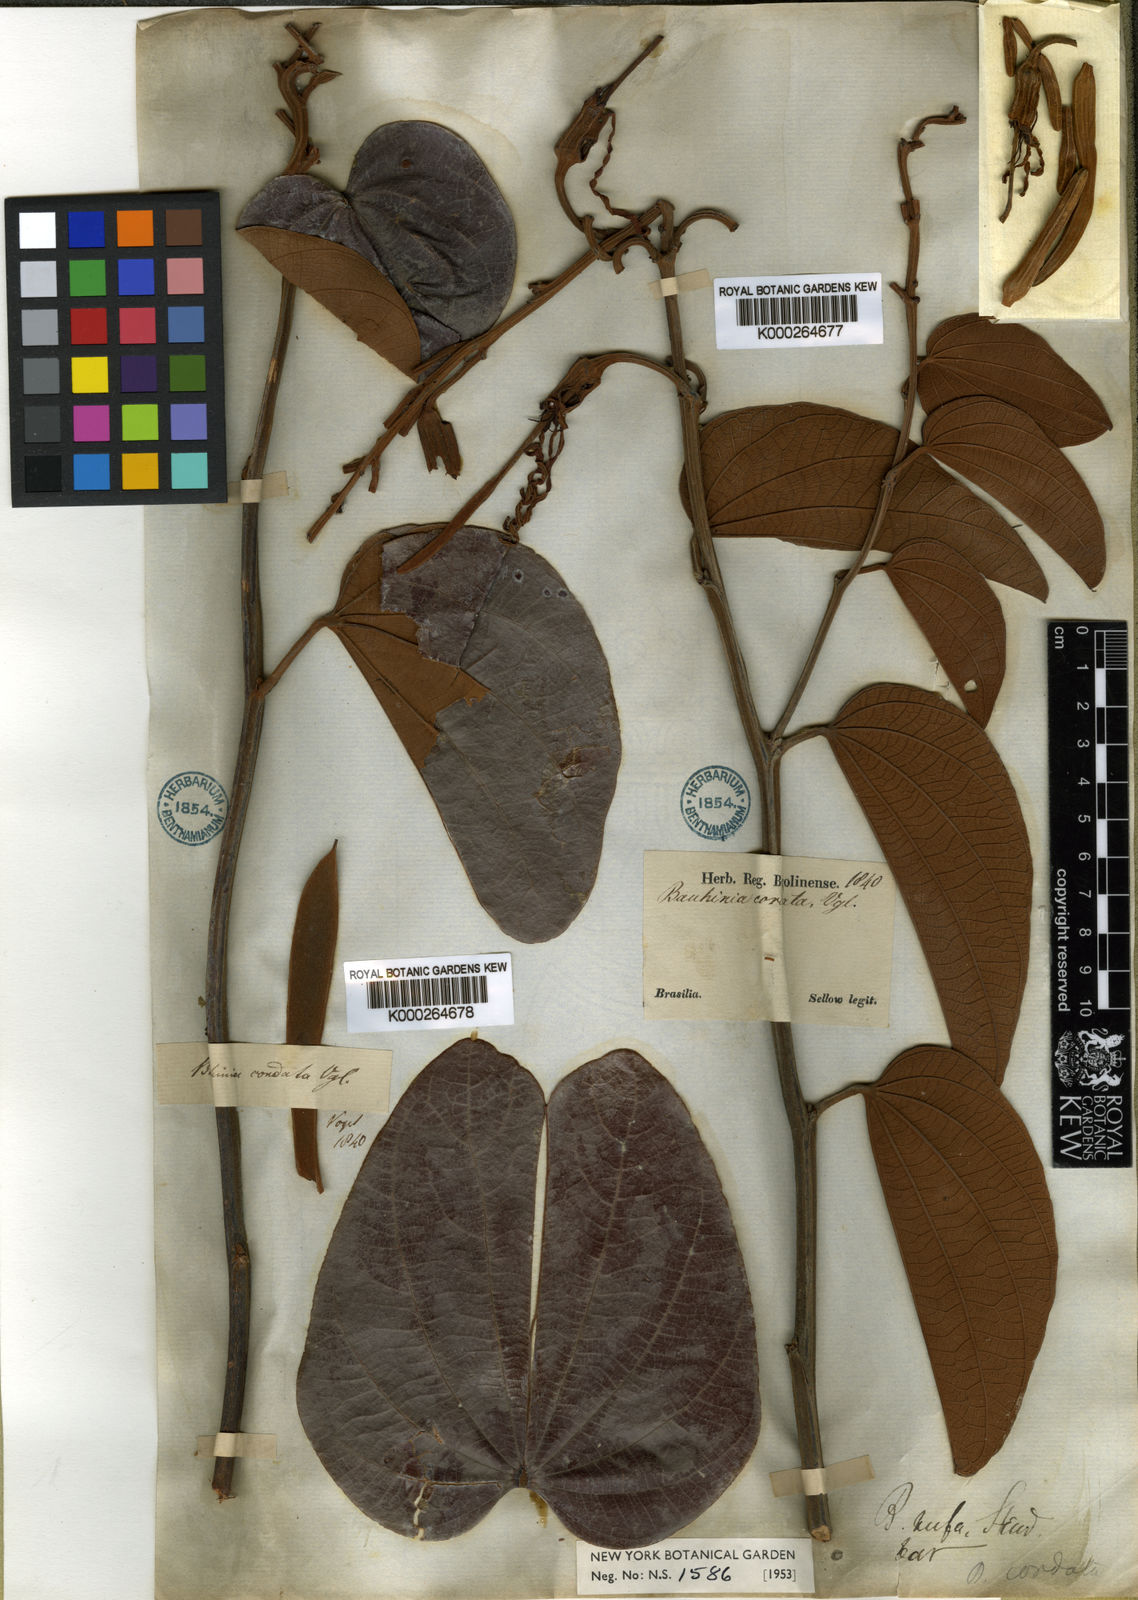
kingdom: Plantae
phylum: Tracheophyta
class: Magnoliopsida
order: Fabales
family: Fabaceae
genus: Bauhinia
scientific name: Bauhinia holophylla
